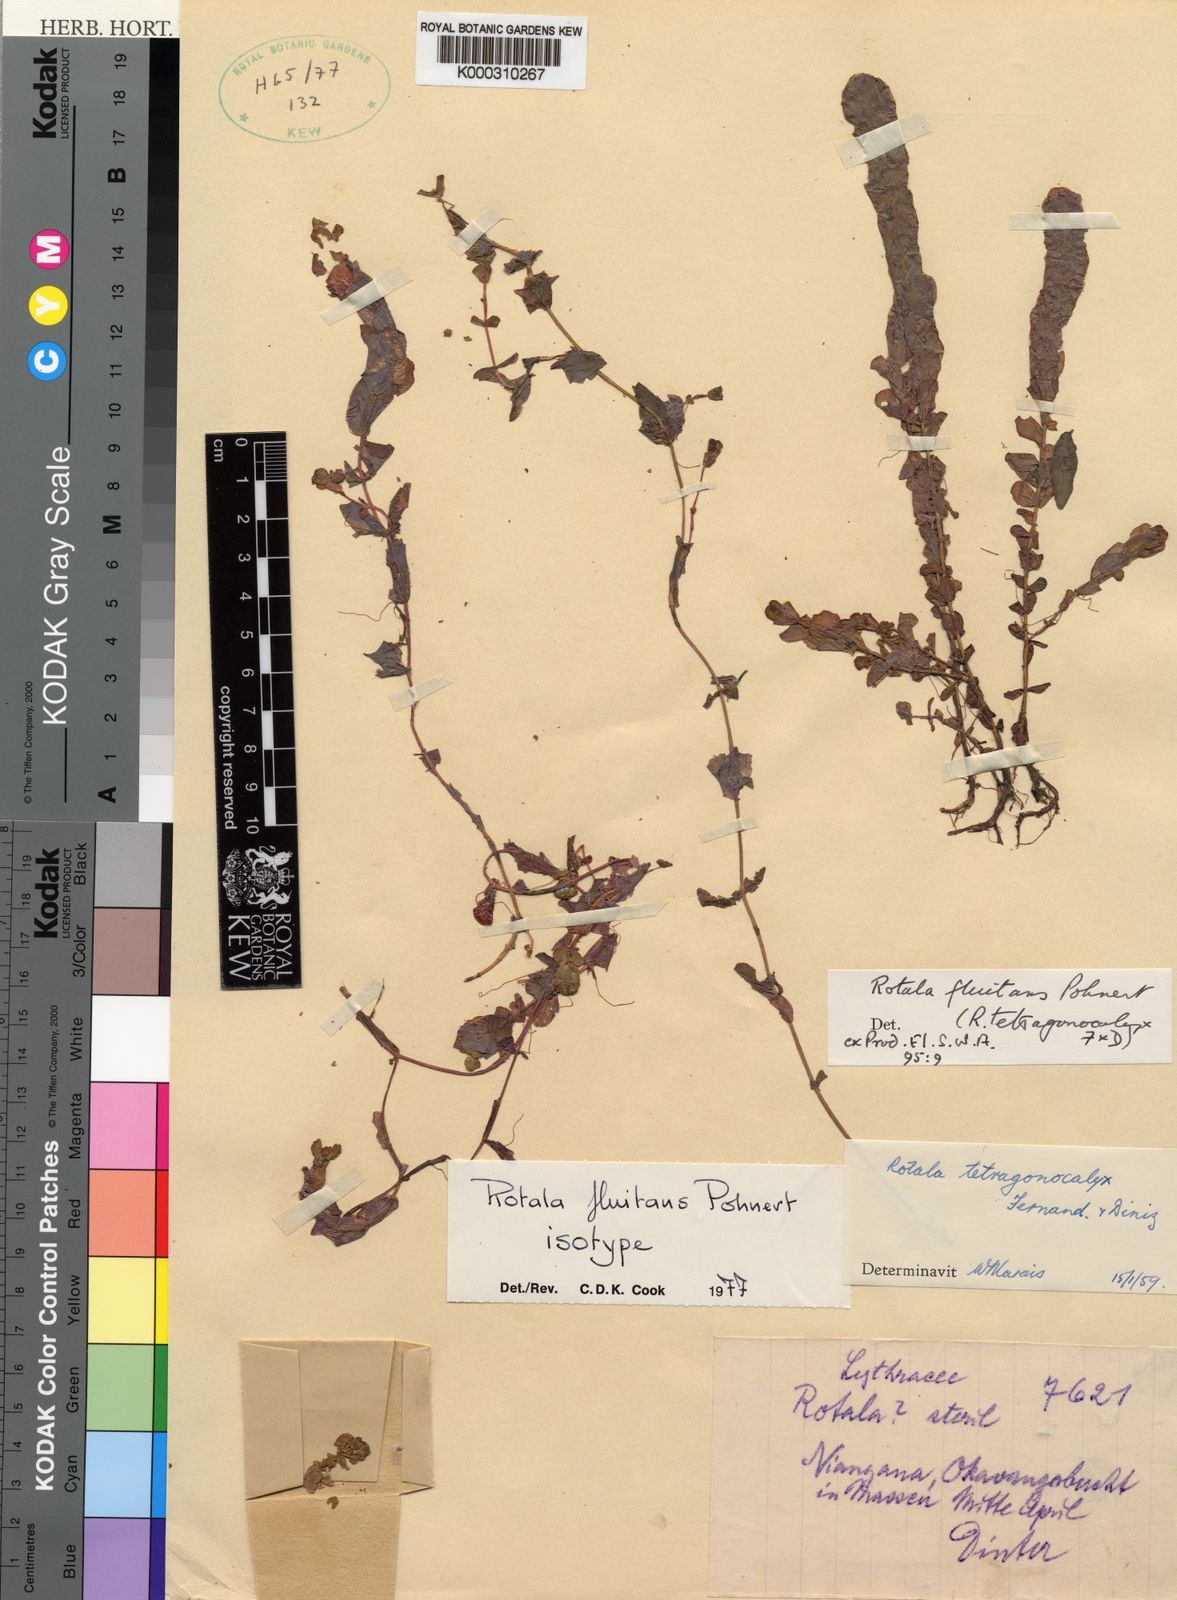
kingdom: Plantae
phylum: Tracheophyta
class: Magnoliopsida
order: Myrtales
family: Lythraceae
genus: Rotala
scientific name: Rotala fluitans
